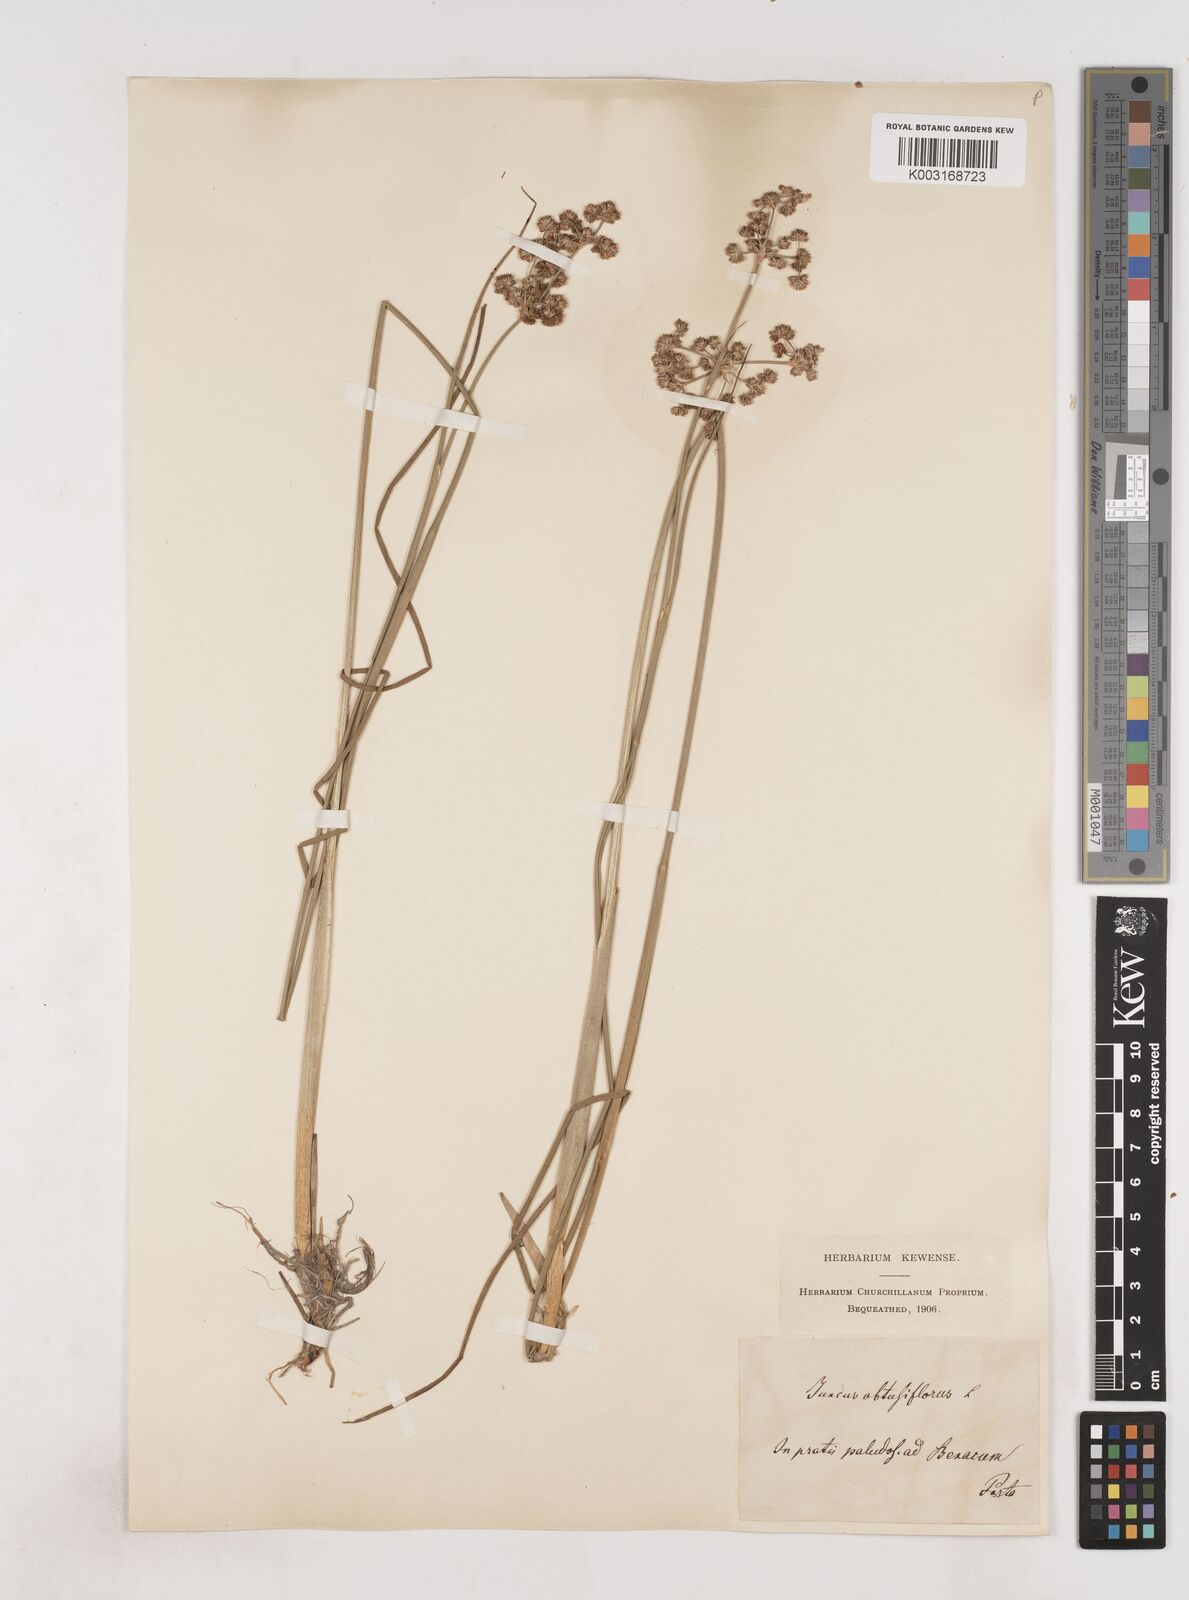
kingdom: Plantae
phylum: Tracheophyta
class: Liliopsida
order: Poales
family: Juncaceae
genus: Juncus
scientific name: Juncus subnodulosus
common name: Blunt-flowered rush
